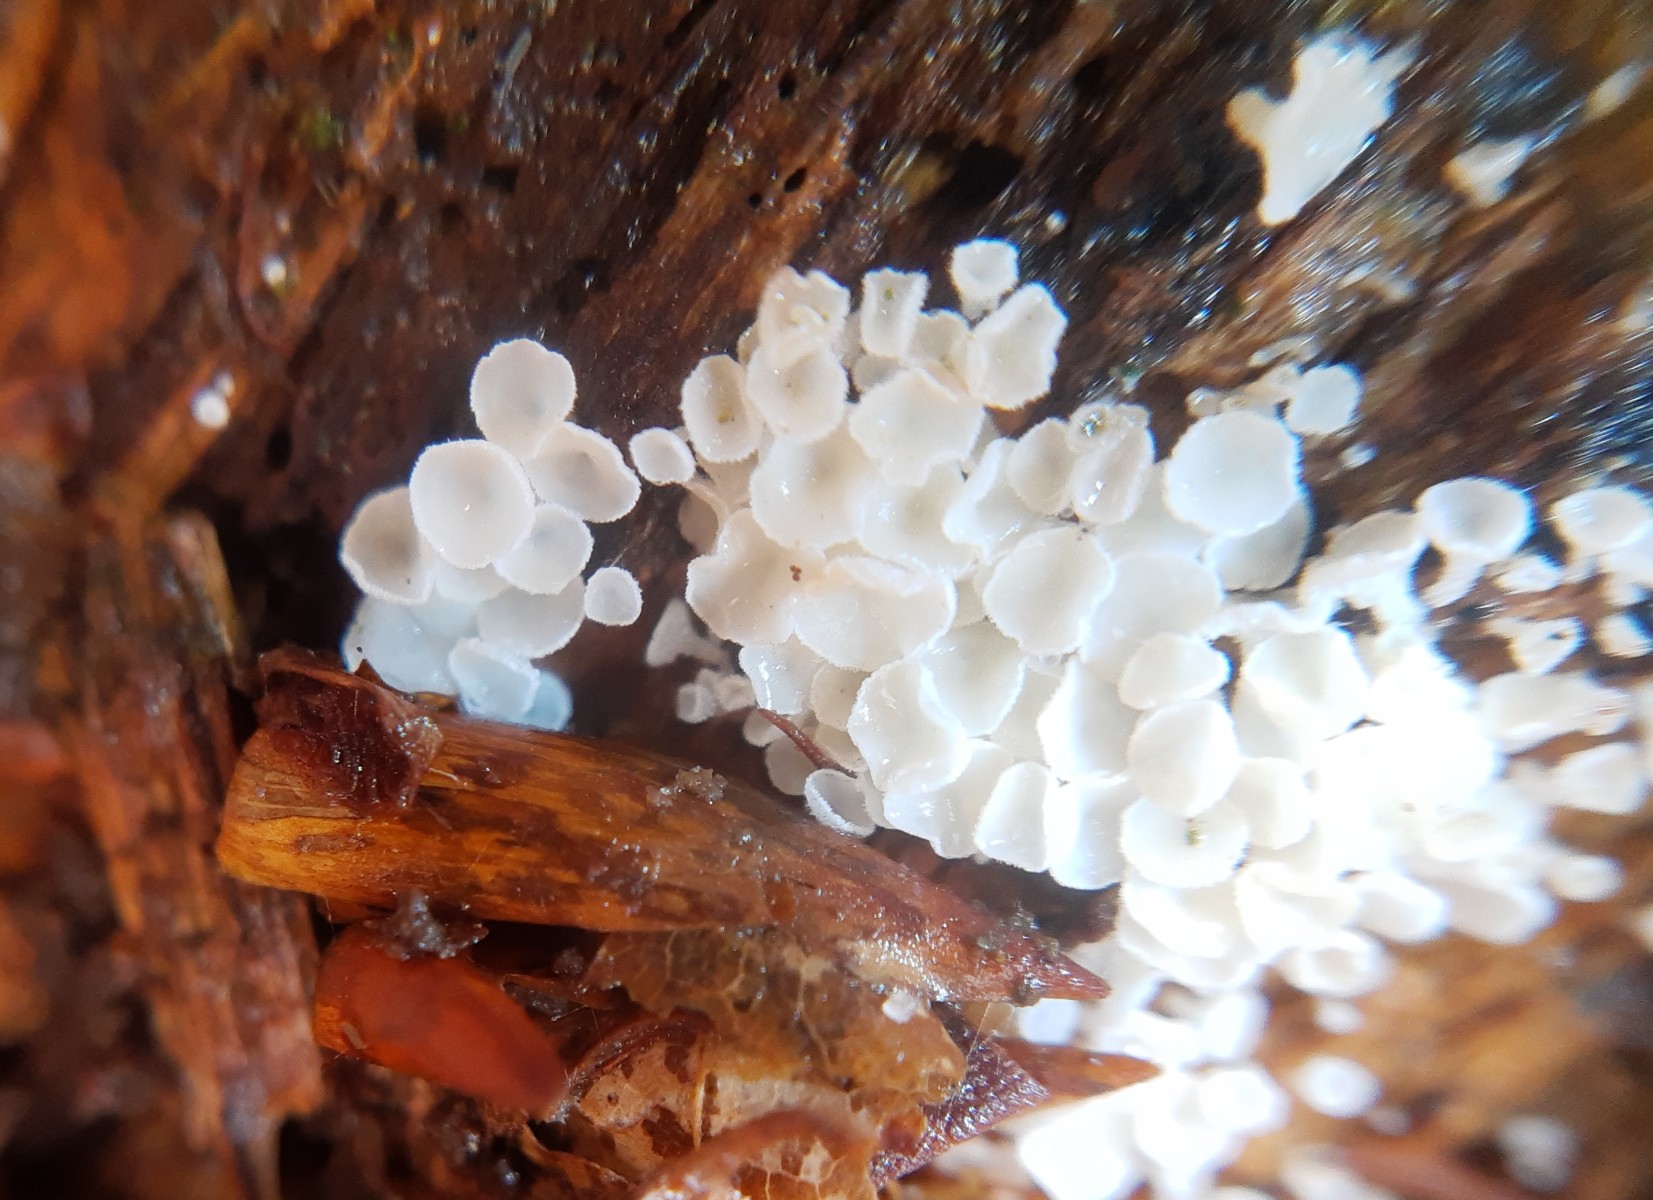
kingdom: Fungi
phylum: Ascomycota
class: Leotiomycetes
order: Helotiales
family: Lachnaceae
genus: Lachnum
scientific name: Lachnum impudicum
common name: vinter-frynseskive
